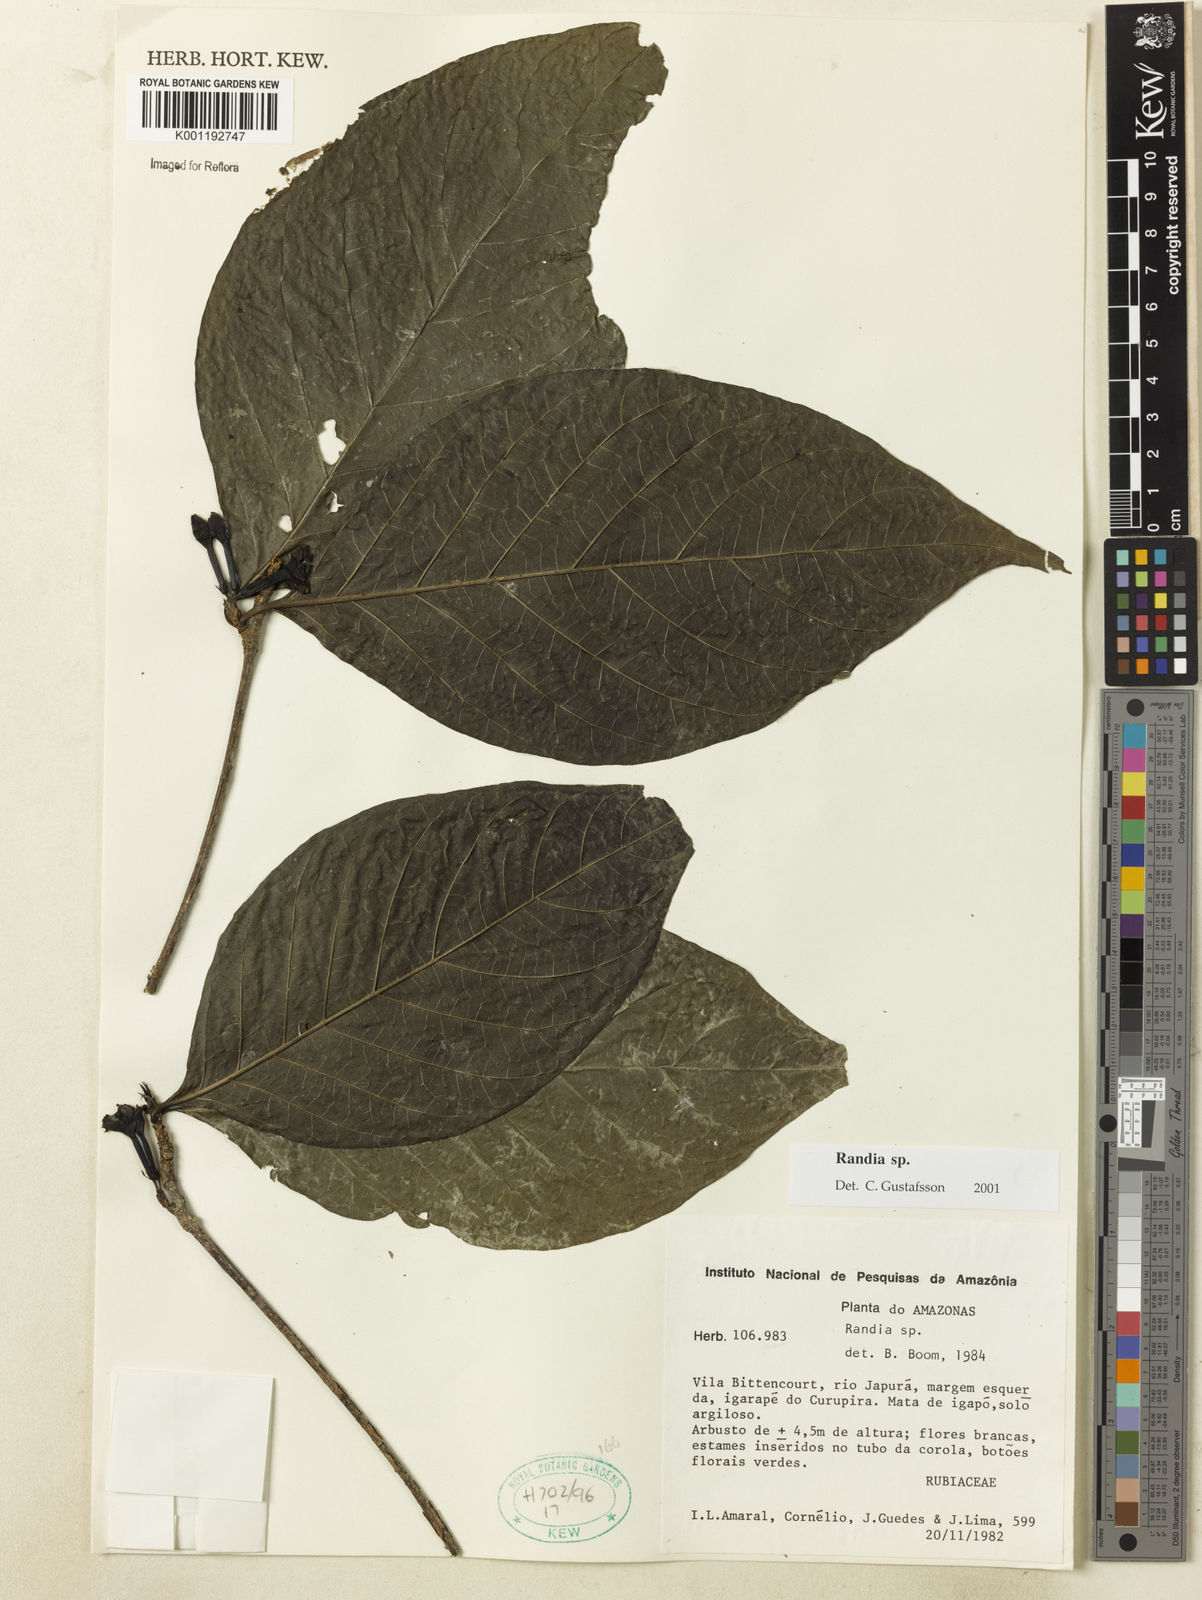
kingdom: Plantae
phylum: Tracheophyta
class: Magnoliopsida
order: Gentianales
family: Rubiaceae
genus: Randia
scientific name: Randia
